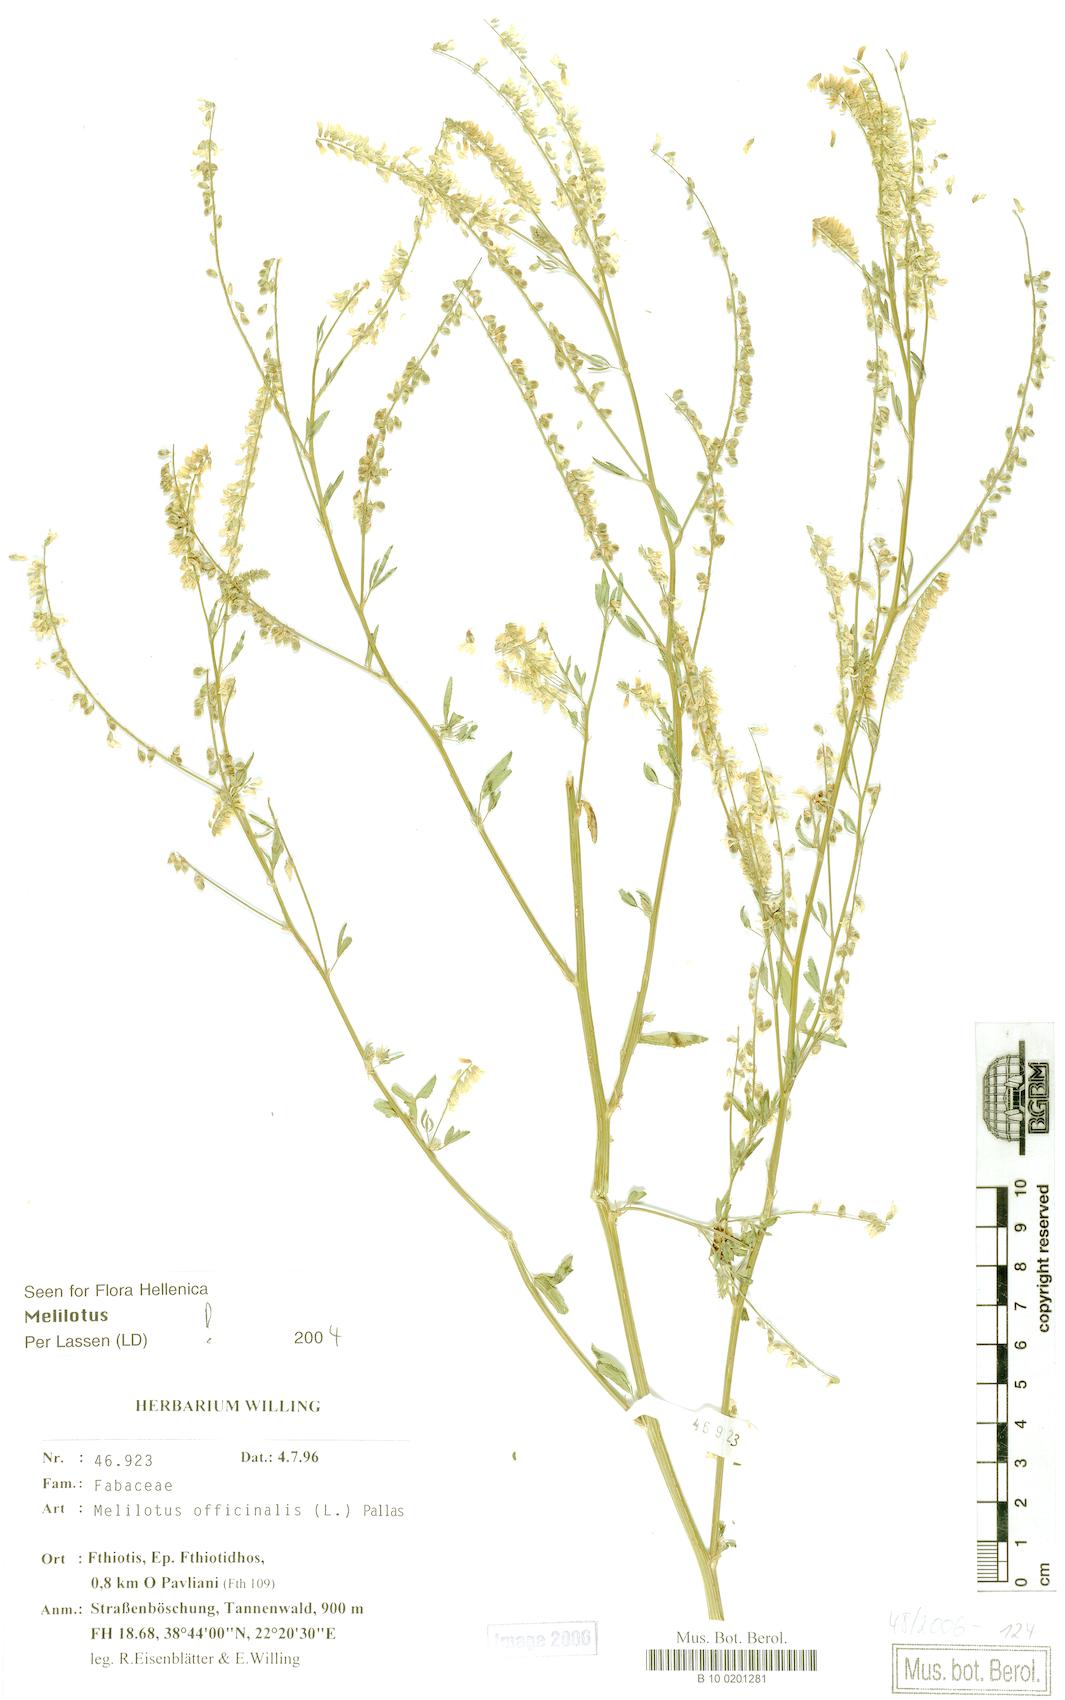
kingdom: Plantae
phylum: Tracheophyta
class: Magnoliopsida
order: Fabales
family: Fabaceae
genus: Melilotus
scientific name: Melilotus officinalis
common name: Sweetclover
